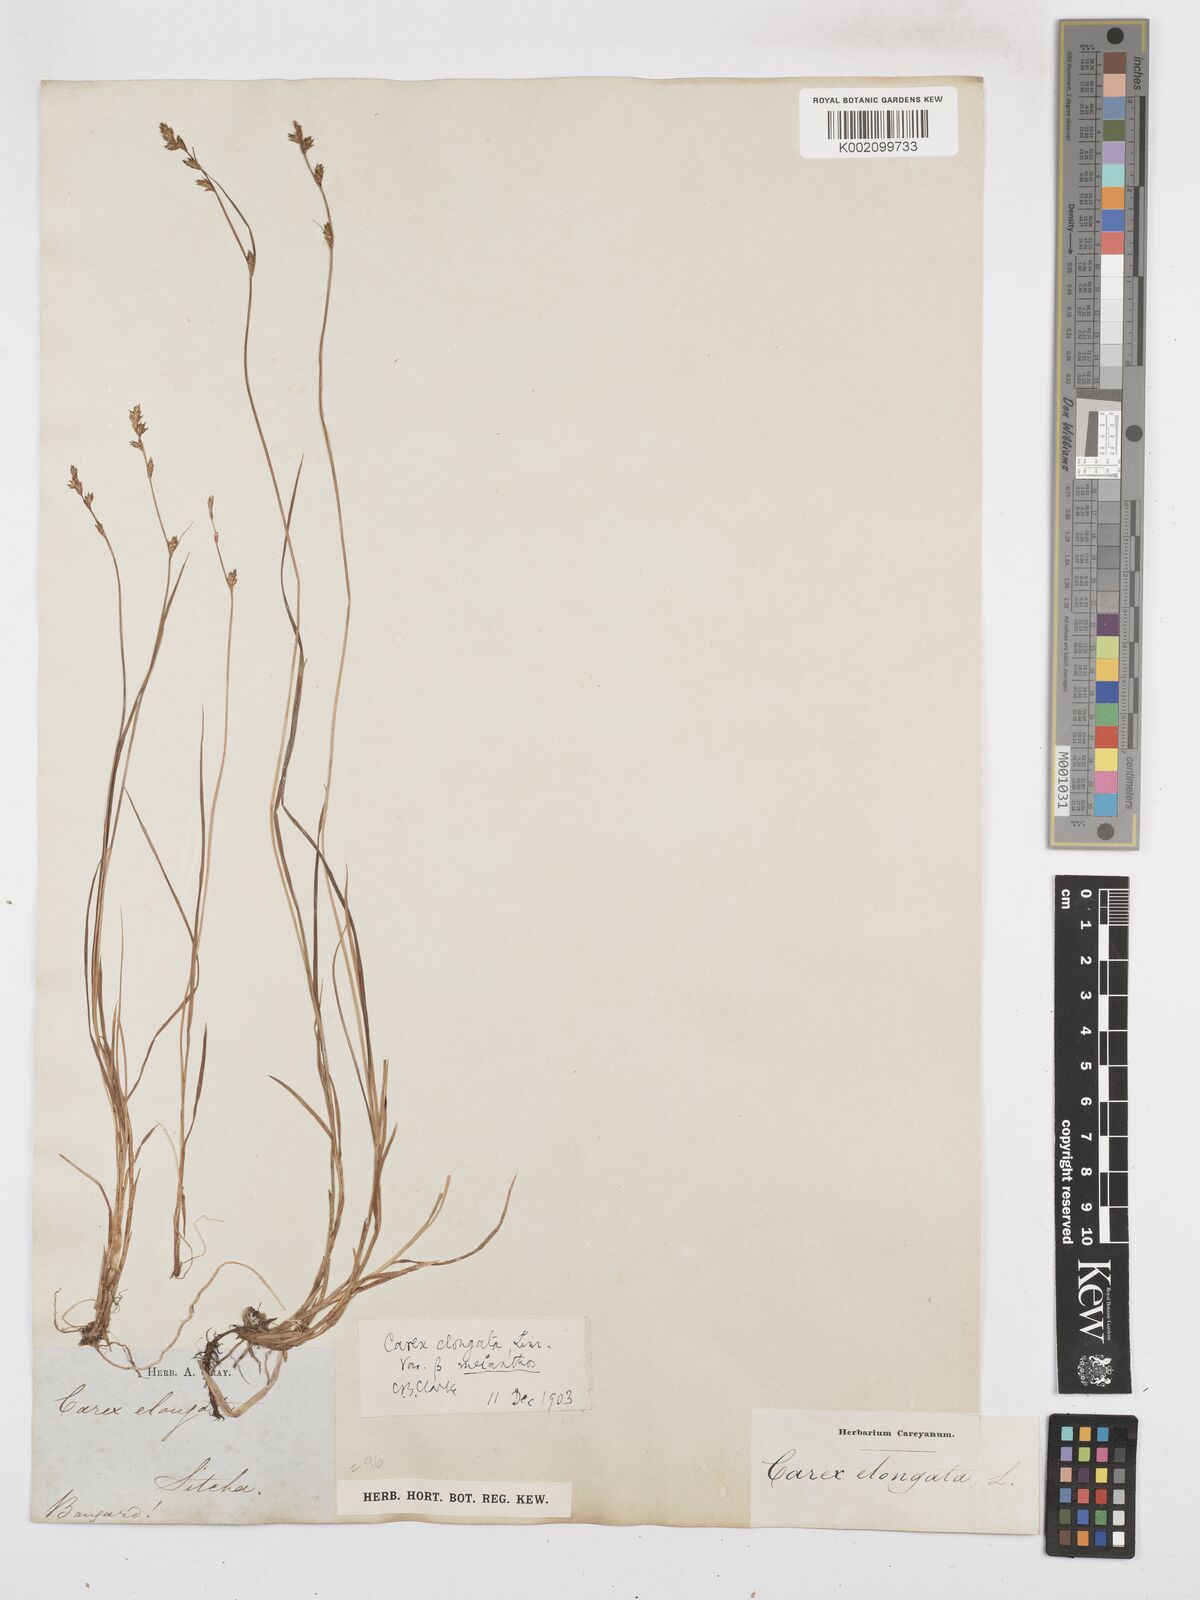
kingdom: Plantae
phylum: Tracheophyta
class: Liliopsida
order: Poales
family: Cyperaceae
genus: Carex
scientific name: Carex curta
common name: White sedge
